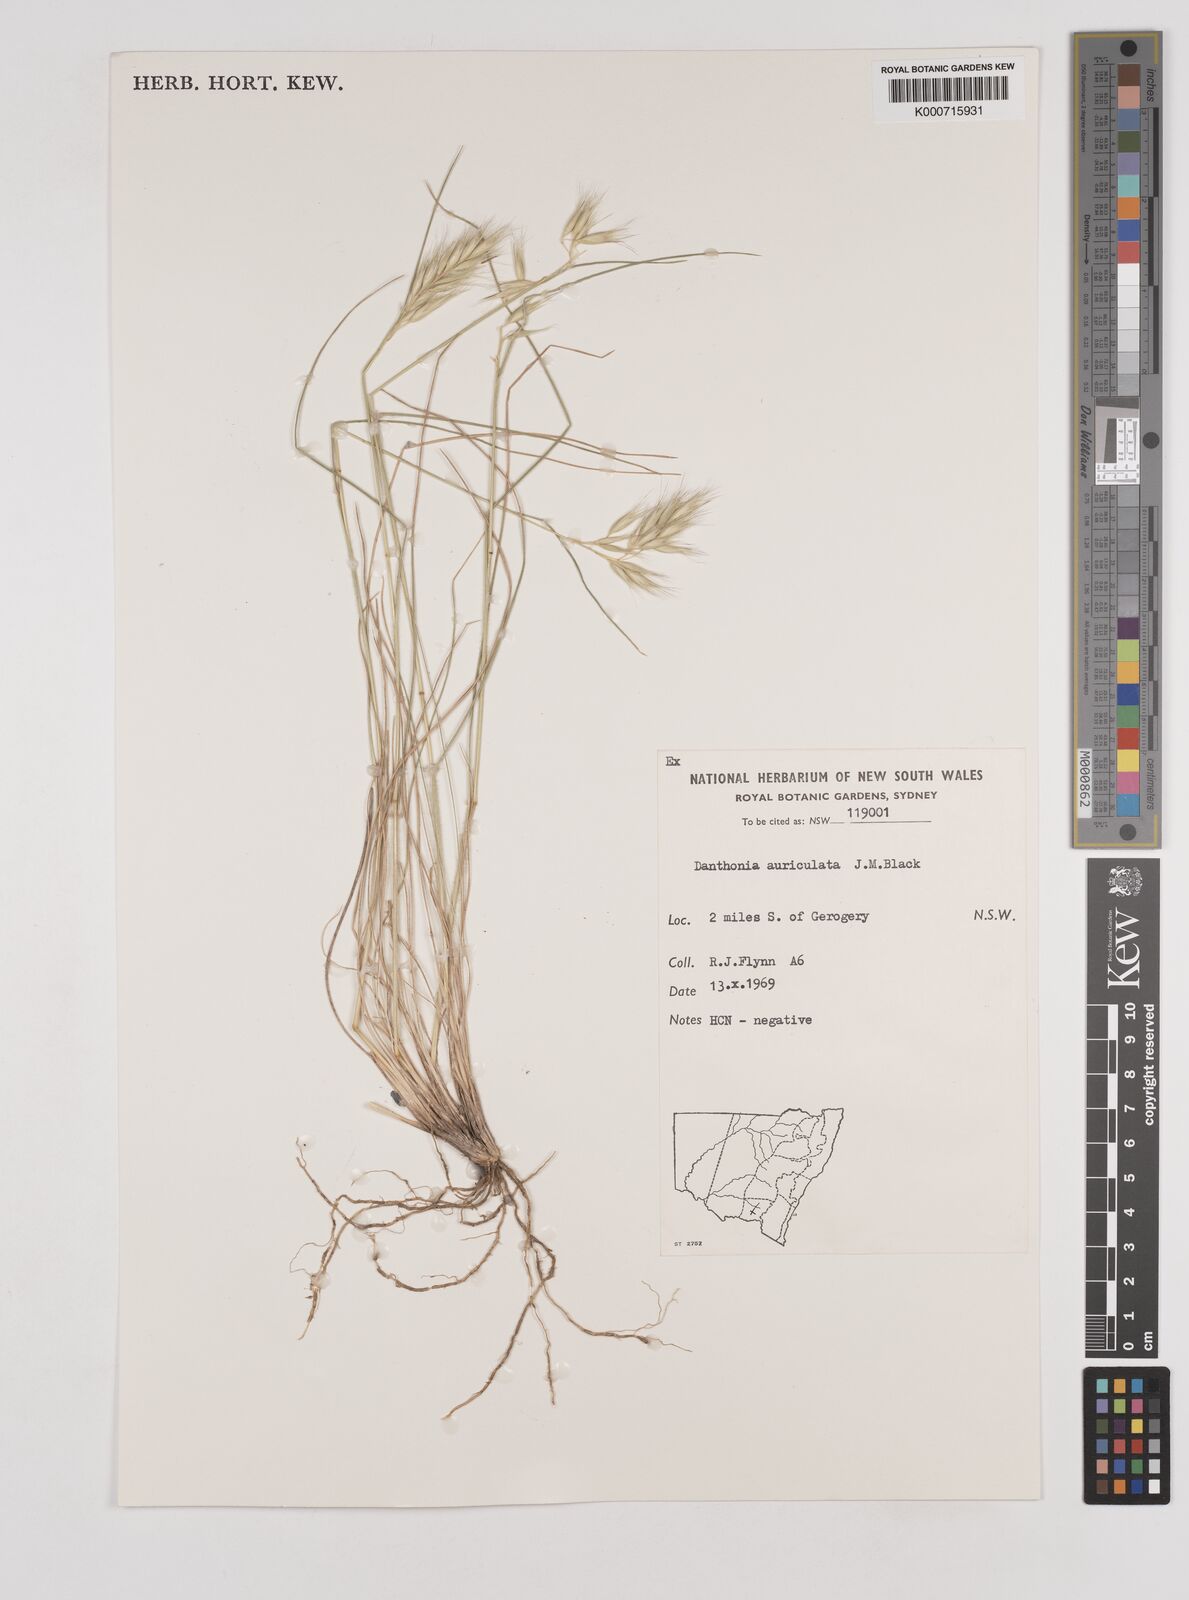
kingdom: Plantae
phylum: Tracheophyta
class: Liliopsida
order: Poales
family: Poaceae
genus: Rytidosperma
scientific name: Rytidosperma auriculatum
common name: Lobed wallaby grass
